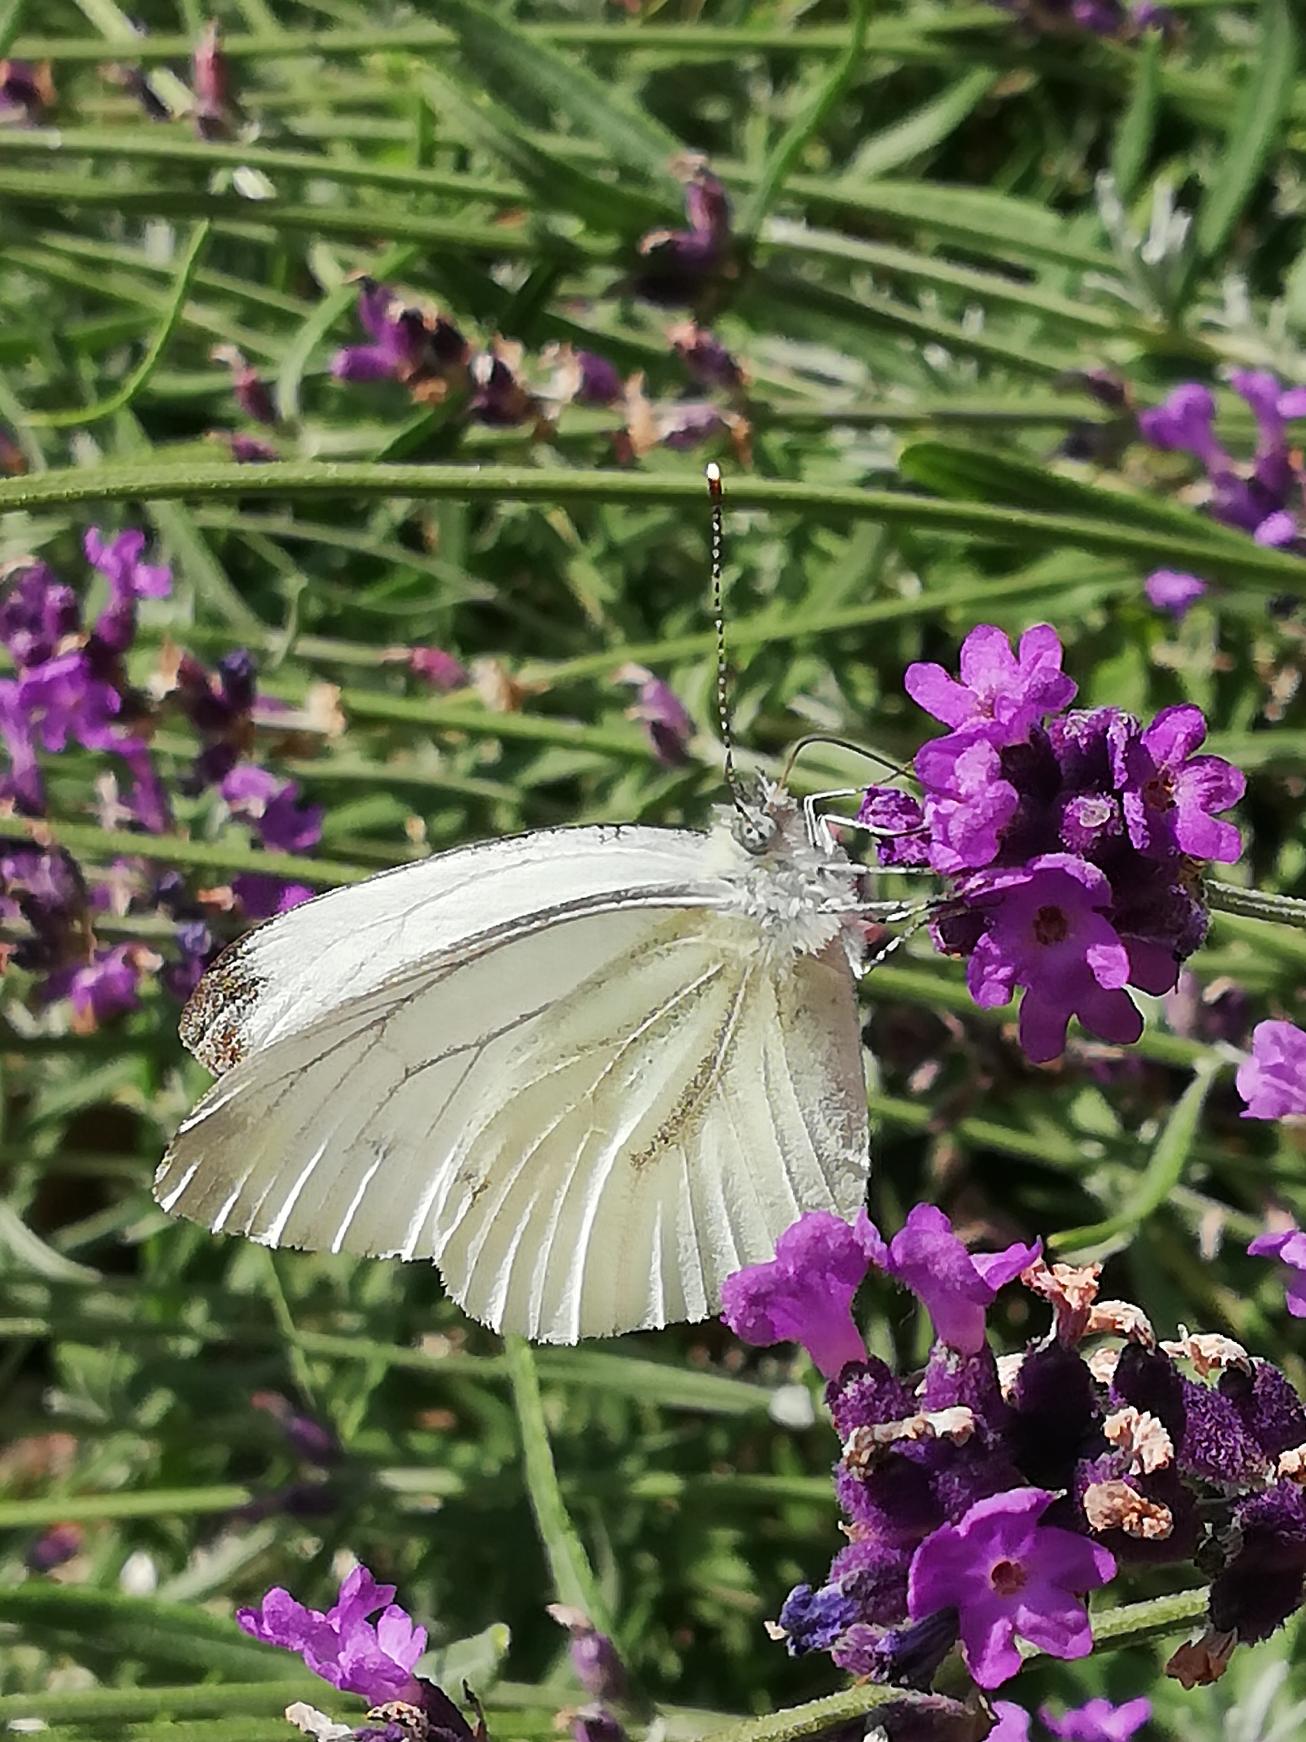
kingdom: Animalia
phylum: Arthropoda
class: Insecta
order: Lepidoptera
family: Pieridae
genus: Pieris
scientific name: Pieris napi
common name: Grønåret kålsommerfugl
